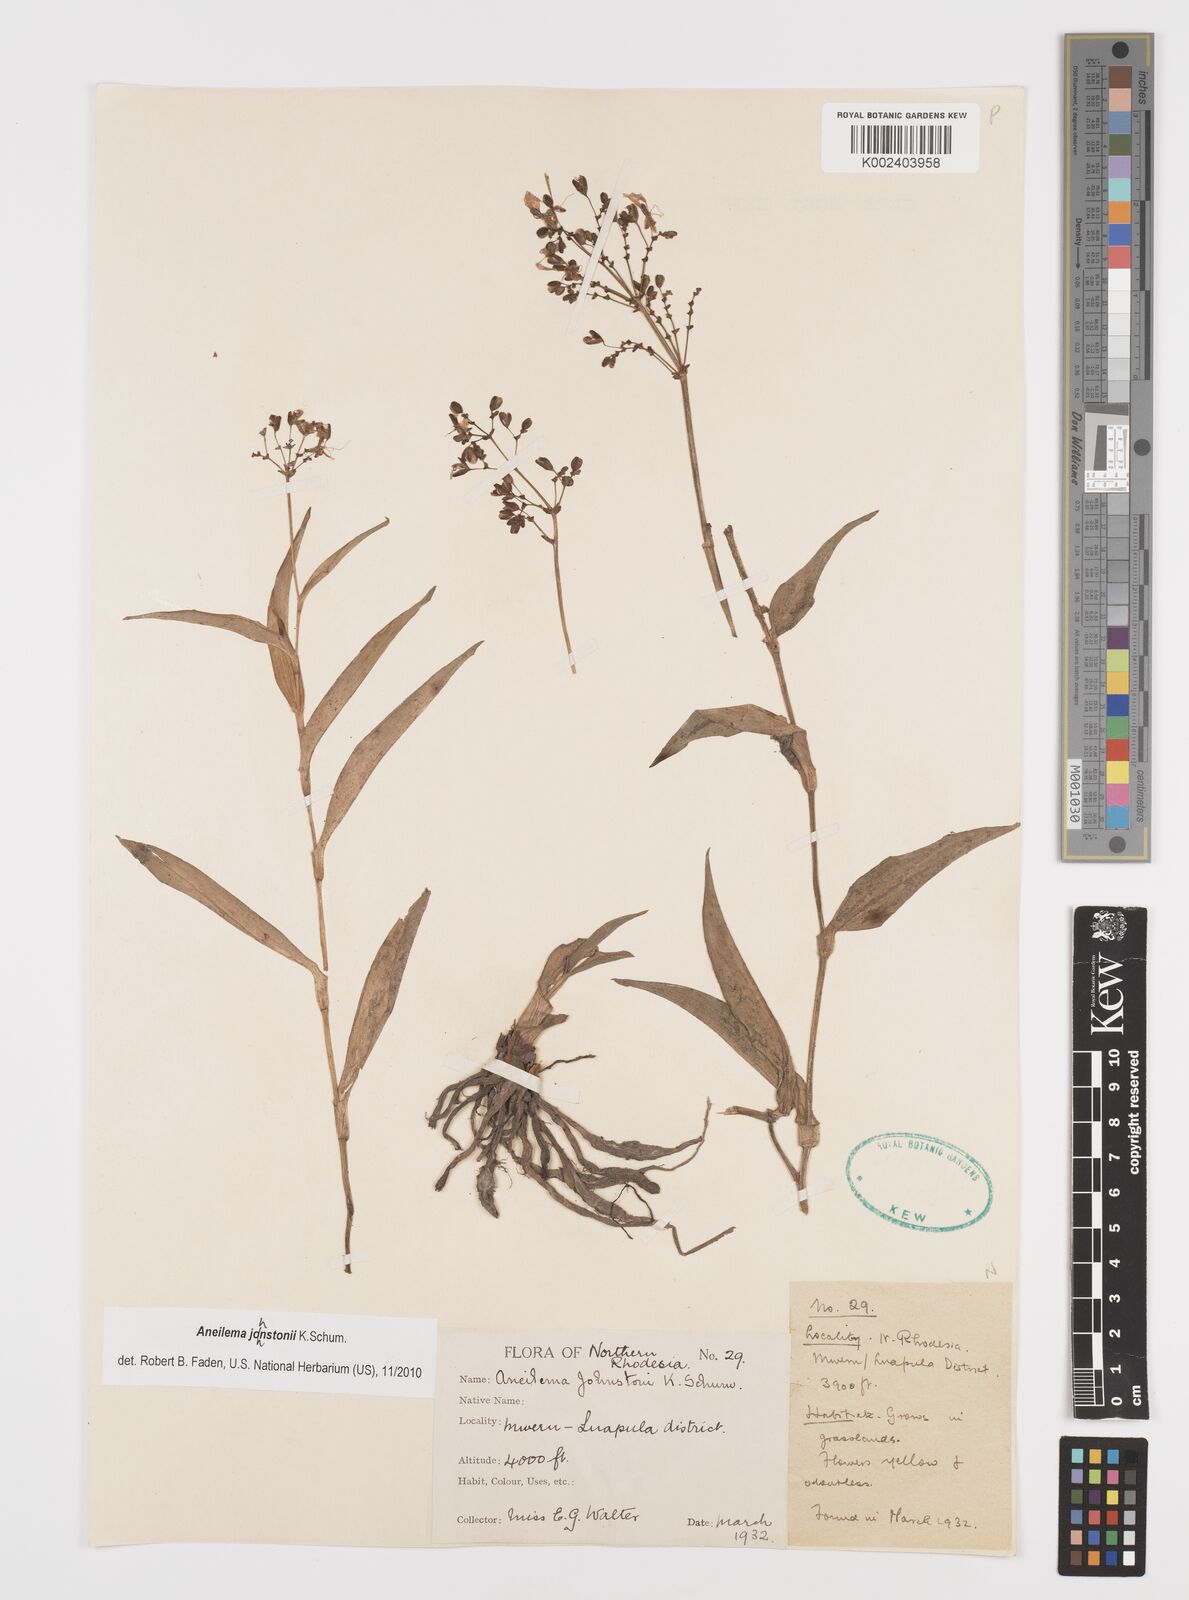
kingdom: Plantae
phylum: Tracheophyta
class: Liliopsida
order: Commelinales
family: Commelinaceae
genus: Aneilema
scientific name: Aneilema johnstonii
